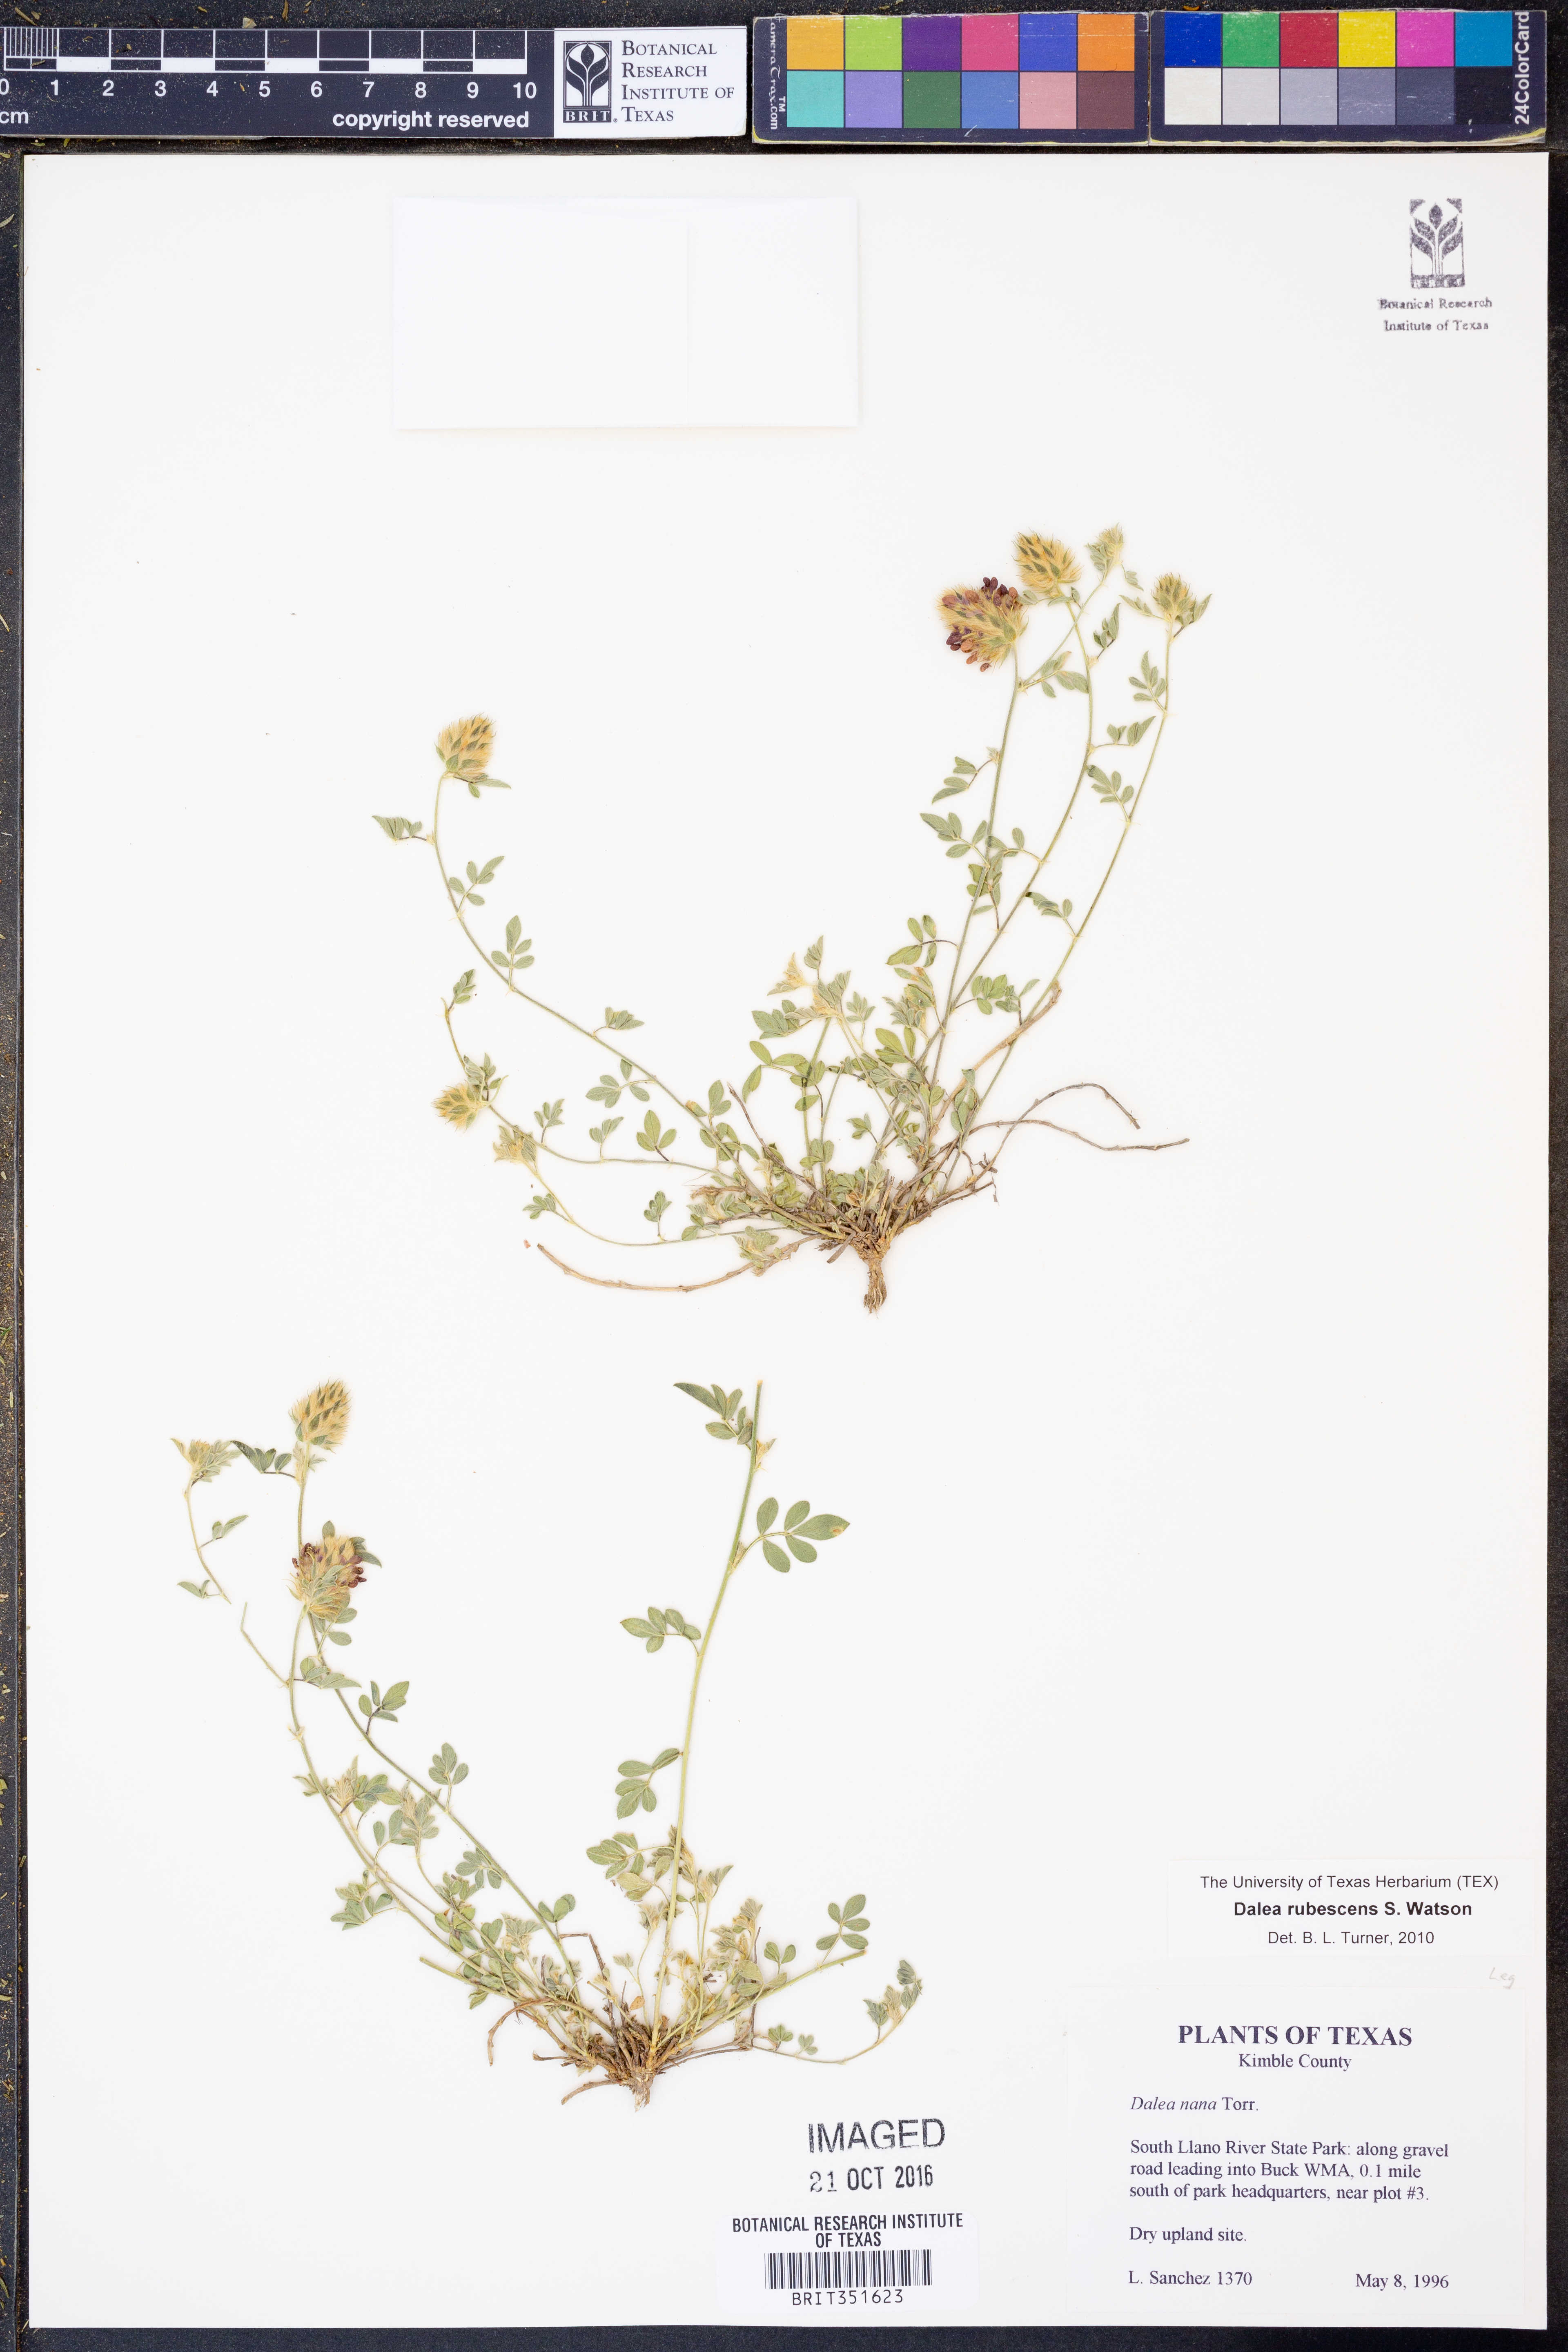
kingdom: Plantae
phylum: Tracheophyta
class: Magnoliopsida
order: Fabales
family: Fabaceae
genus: Dalea
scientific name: Dalea rubescens
